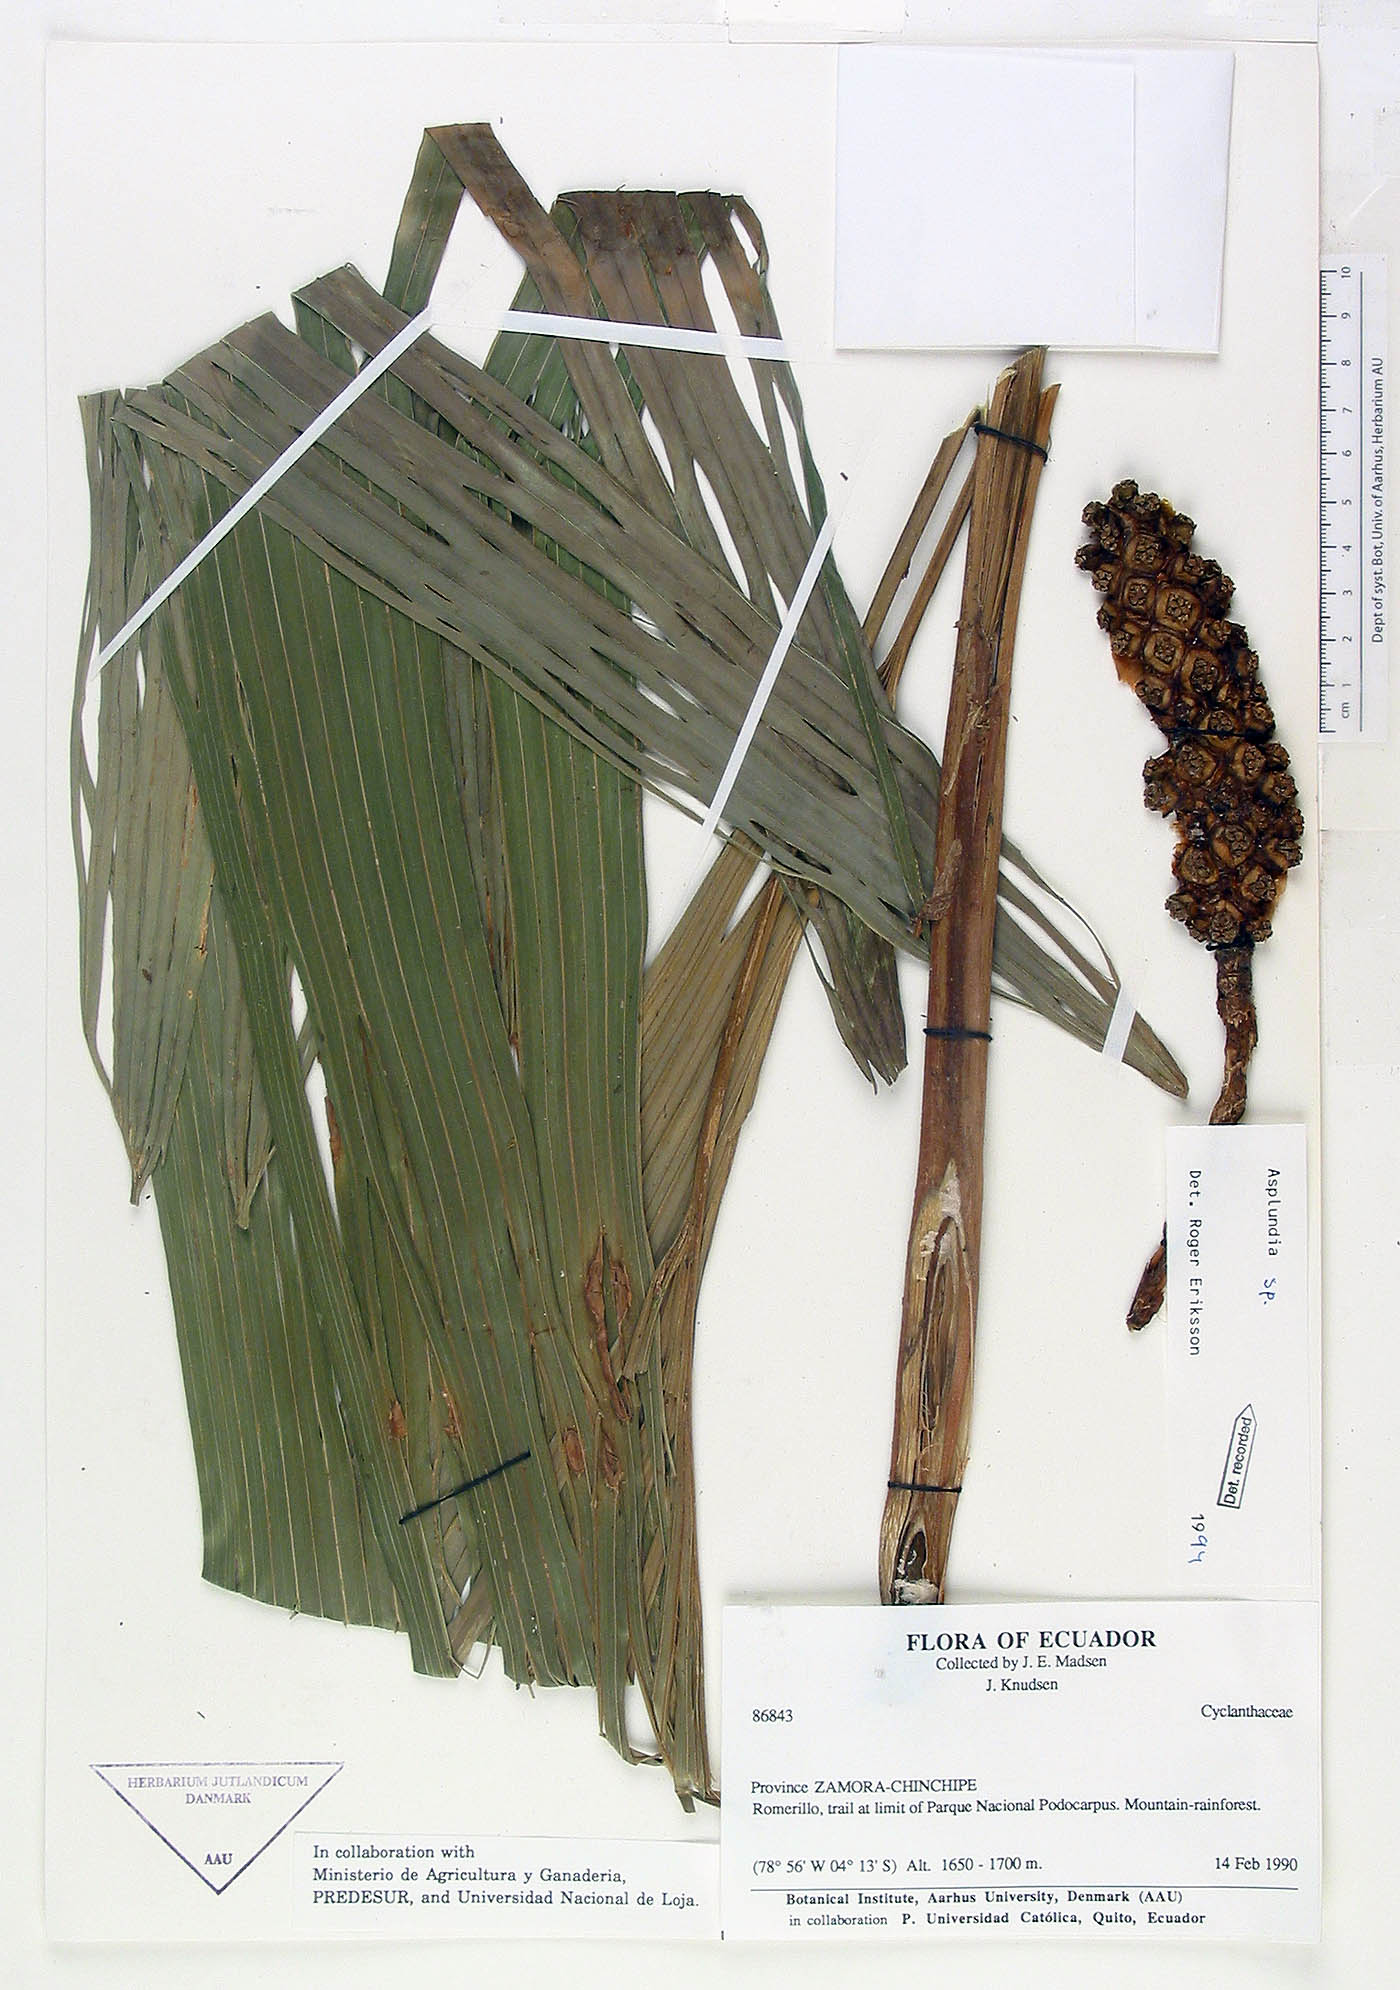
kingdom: Plantae
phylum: Tracheophyta
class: Liliopsida
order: Pandanales
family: Cyclanthaceae
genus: Asplundia
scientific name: Asplundia
